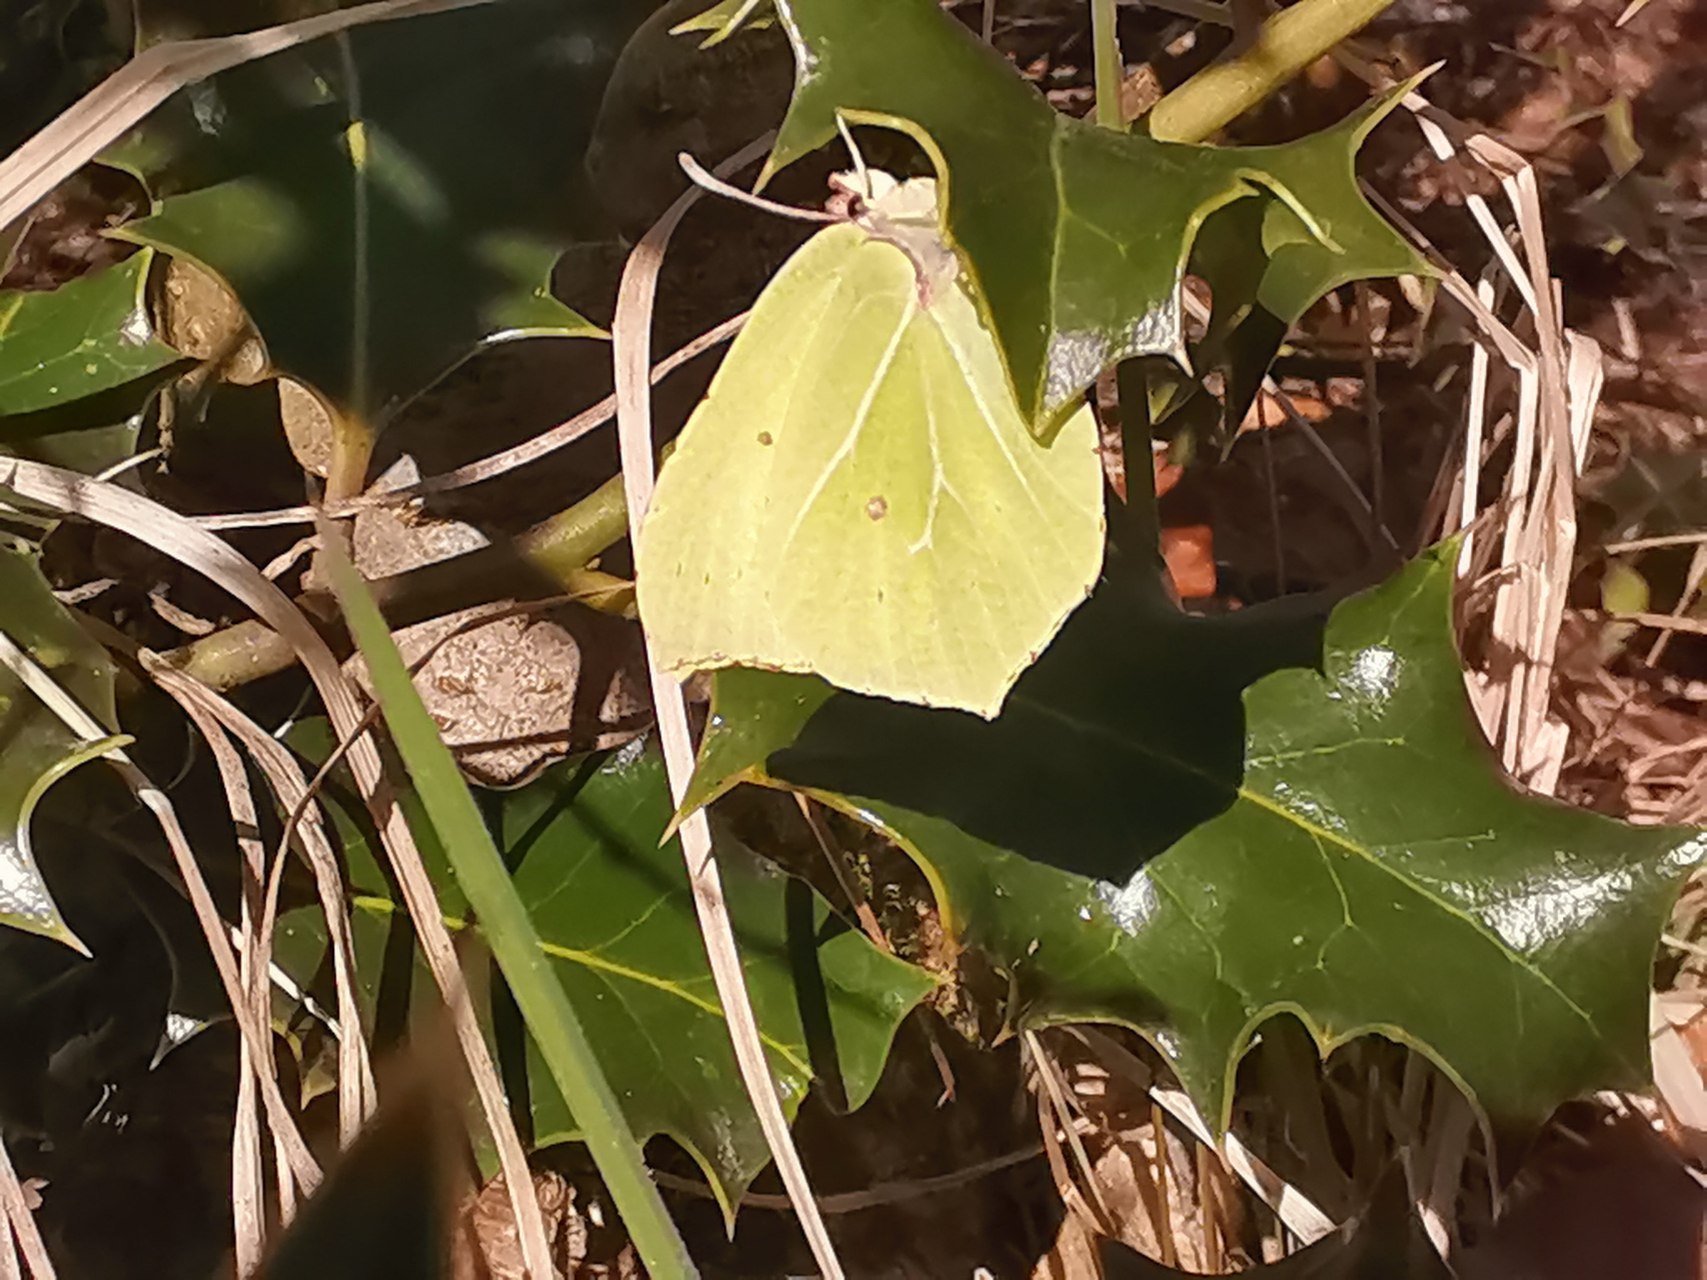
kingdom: Animalia
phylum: Arthropoda
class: Insecta
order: Lepidoptera
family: Pieridae
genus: Gonepteryx
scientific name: Gonepteryx rhamni
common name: Citronsommerfugl
